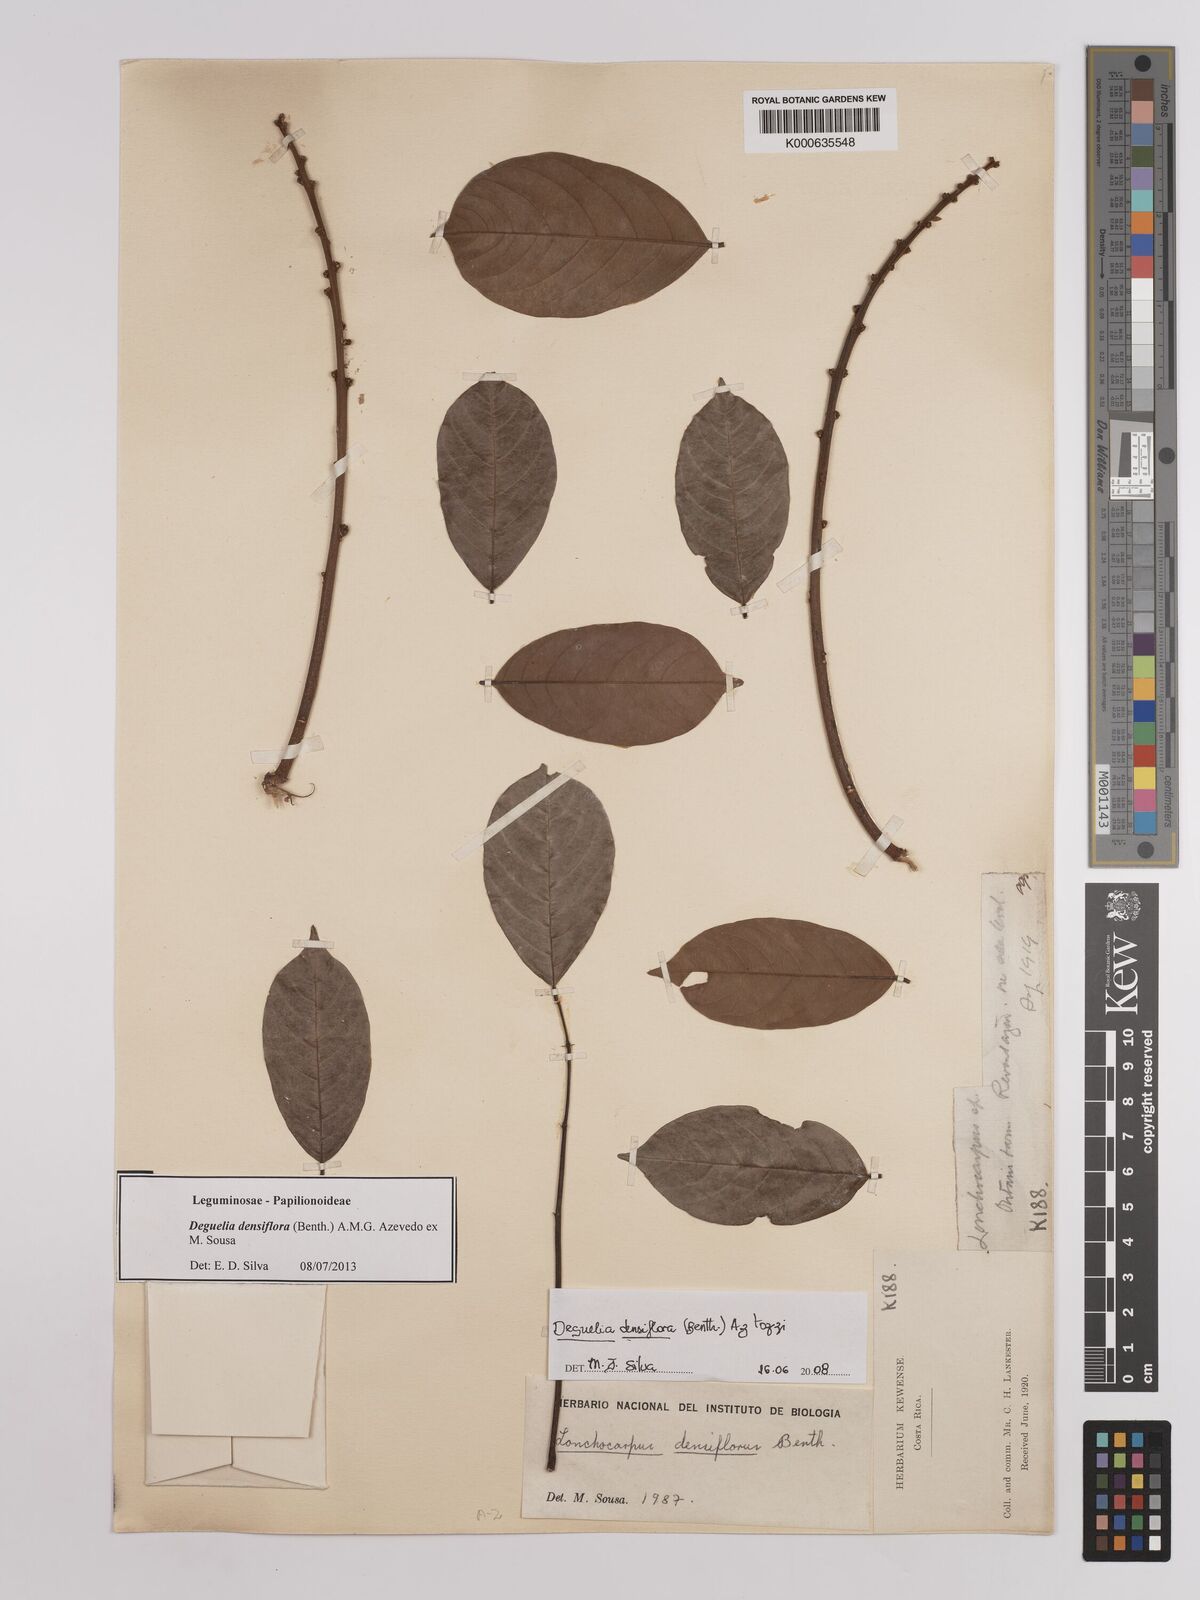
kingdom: Plantae
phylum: Tracheophyta
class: Magnoliopsida
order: Fabales
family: Fabaceae
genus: Deguelia
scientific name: Deguelia densiflora
